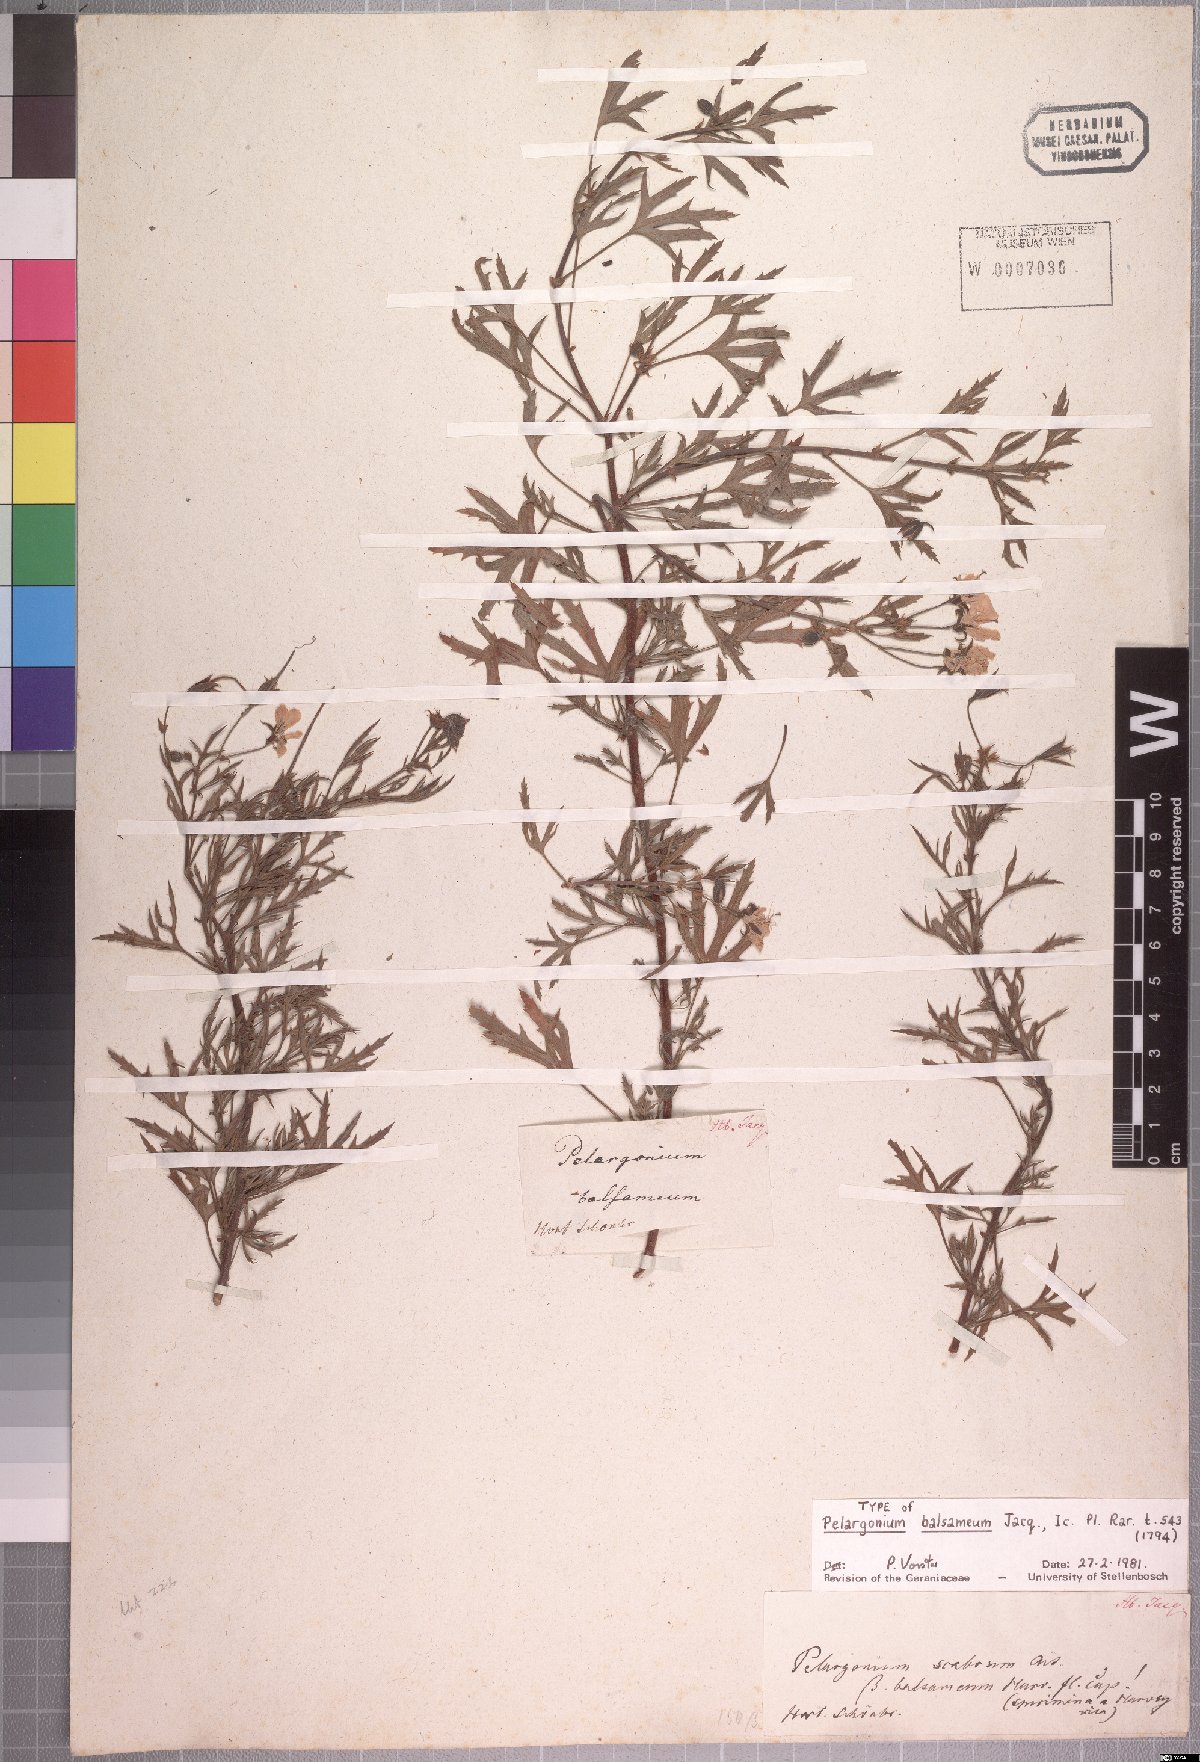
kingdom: Plantae
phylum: Tracheophyta
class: Magnoliopsida
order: Geraniales
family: Geraniaceae
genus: Pelargonium
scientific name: Pelargonium scabrum
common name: Apricot geranium
